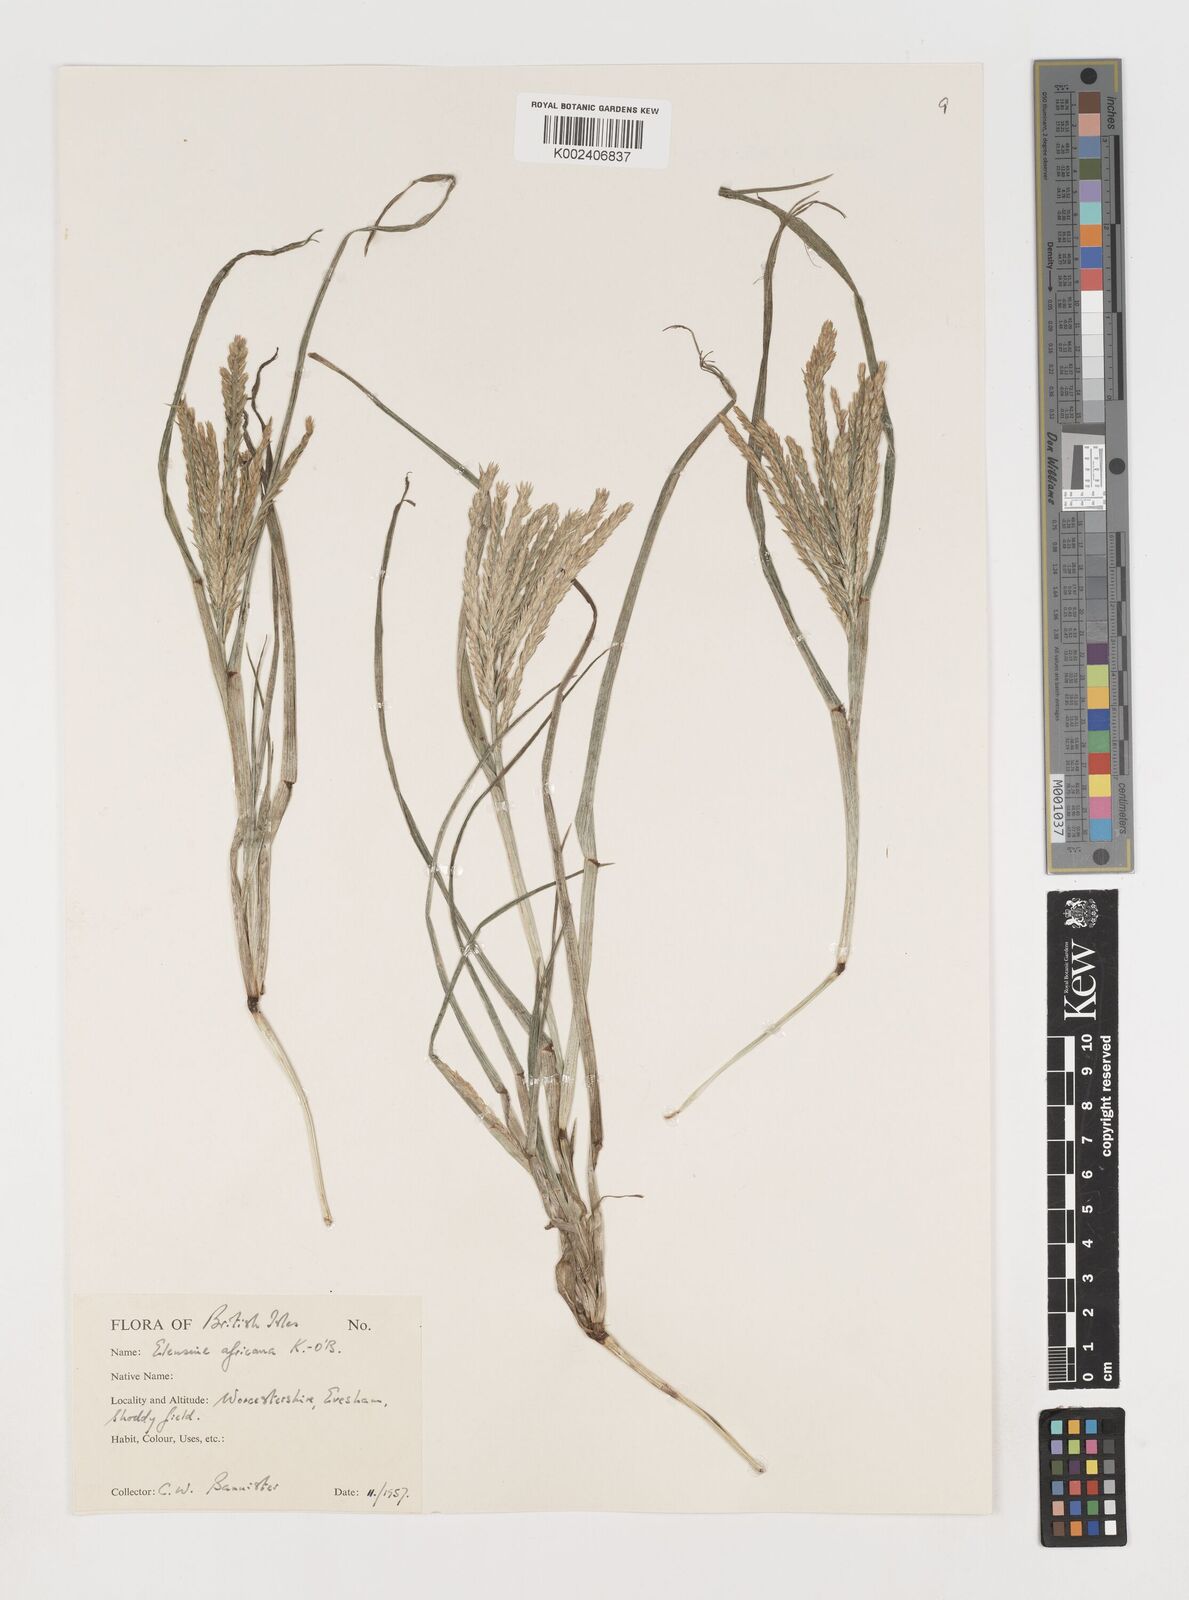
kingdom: Plantae
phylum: Tracheophyta
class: Liliopsida
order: Poales
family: Poaceae
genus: Eleusine
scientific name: Eleusine africana
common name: Wild african finger millet
